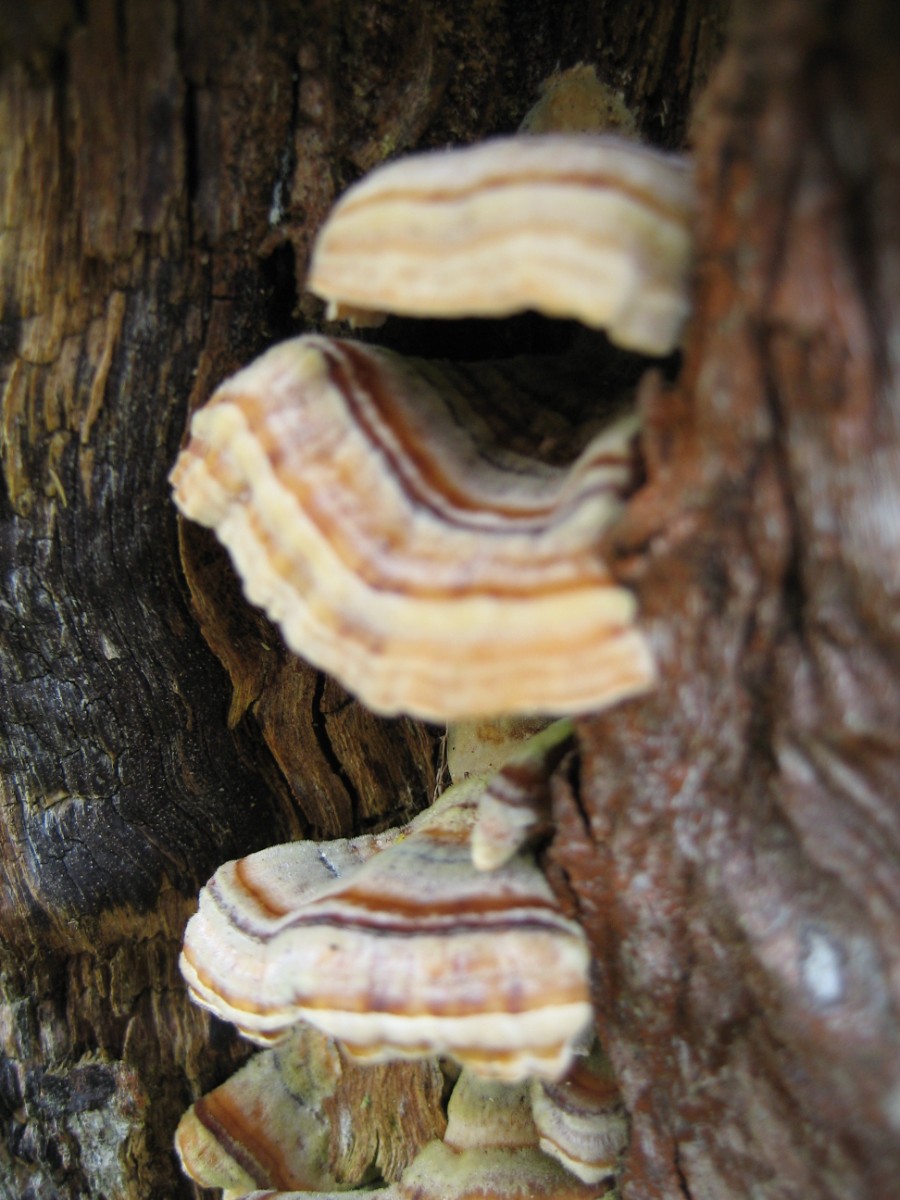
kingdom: Fungi
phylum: Basidiomycota
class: Agaricomycetes
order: Polyporales
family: Polyporaceae
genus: Trametes
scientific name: Trametes versicolor
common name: broget læderporesvamp
